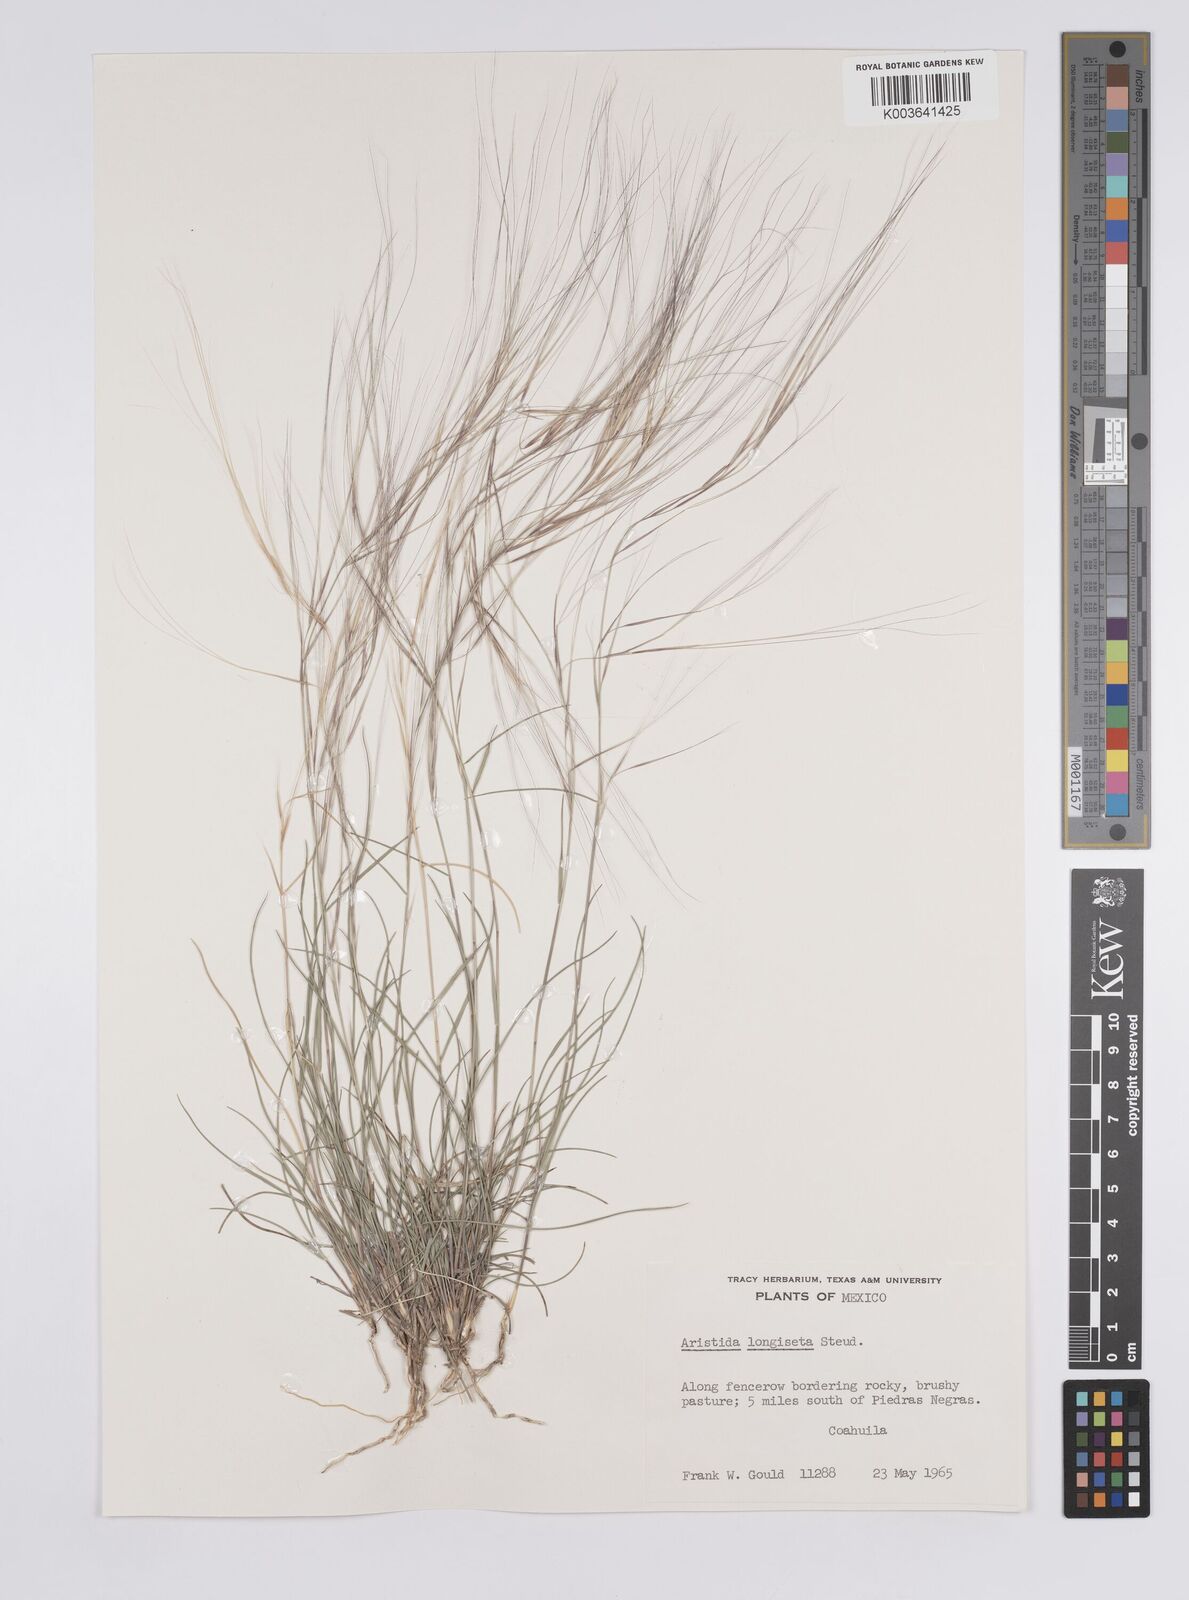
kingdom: Plantae
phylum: Tracheophyta
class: Liliopsida
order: Poales
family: Poaceae
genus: Aristida
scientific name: Aristida purpurea
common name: Purple threeawn
